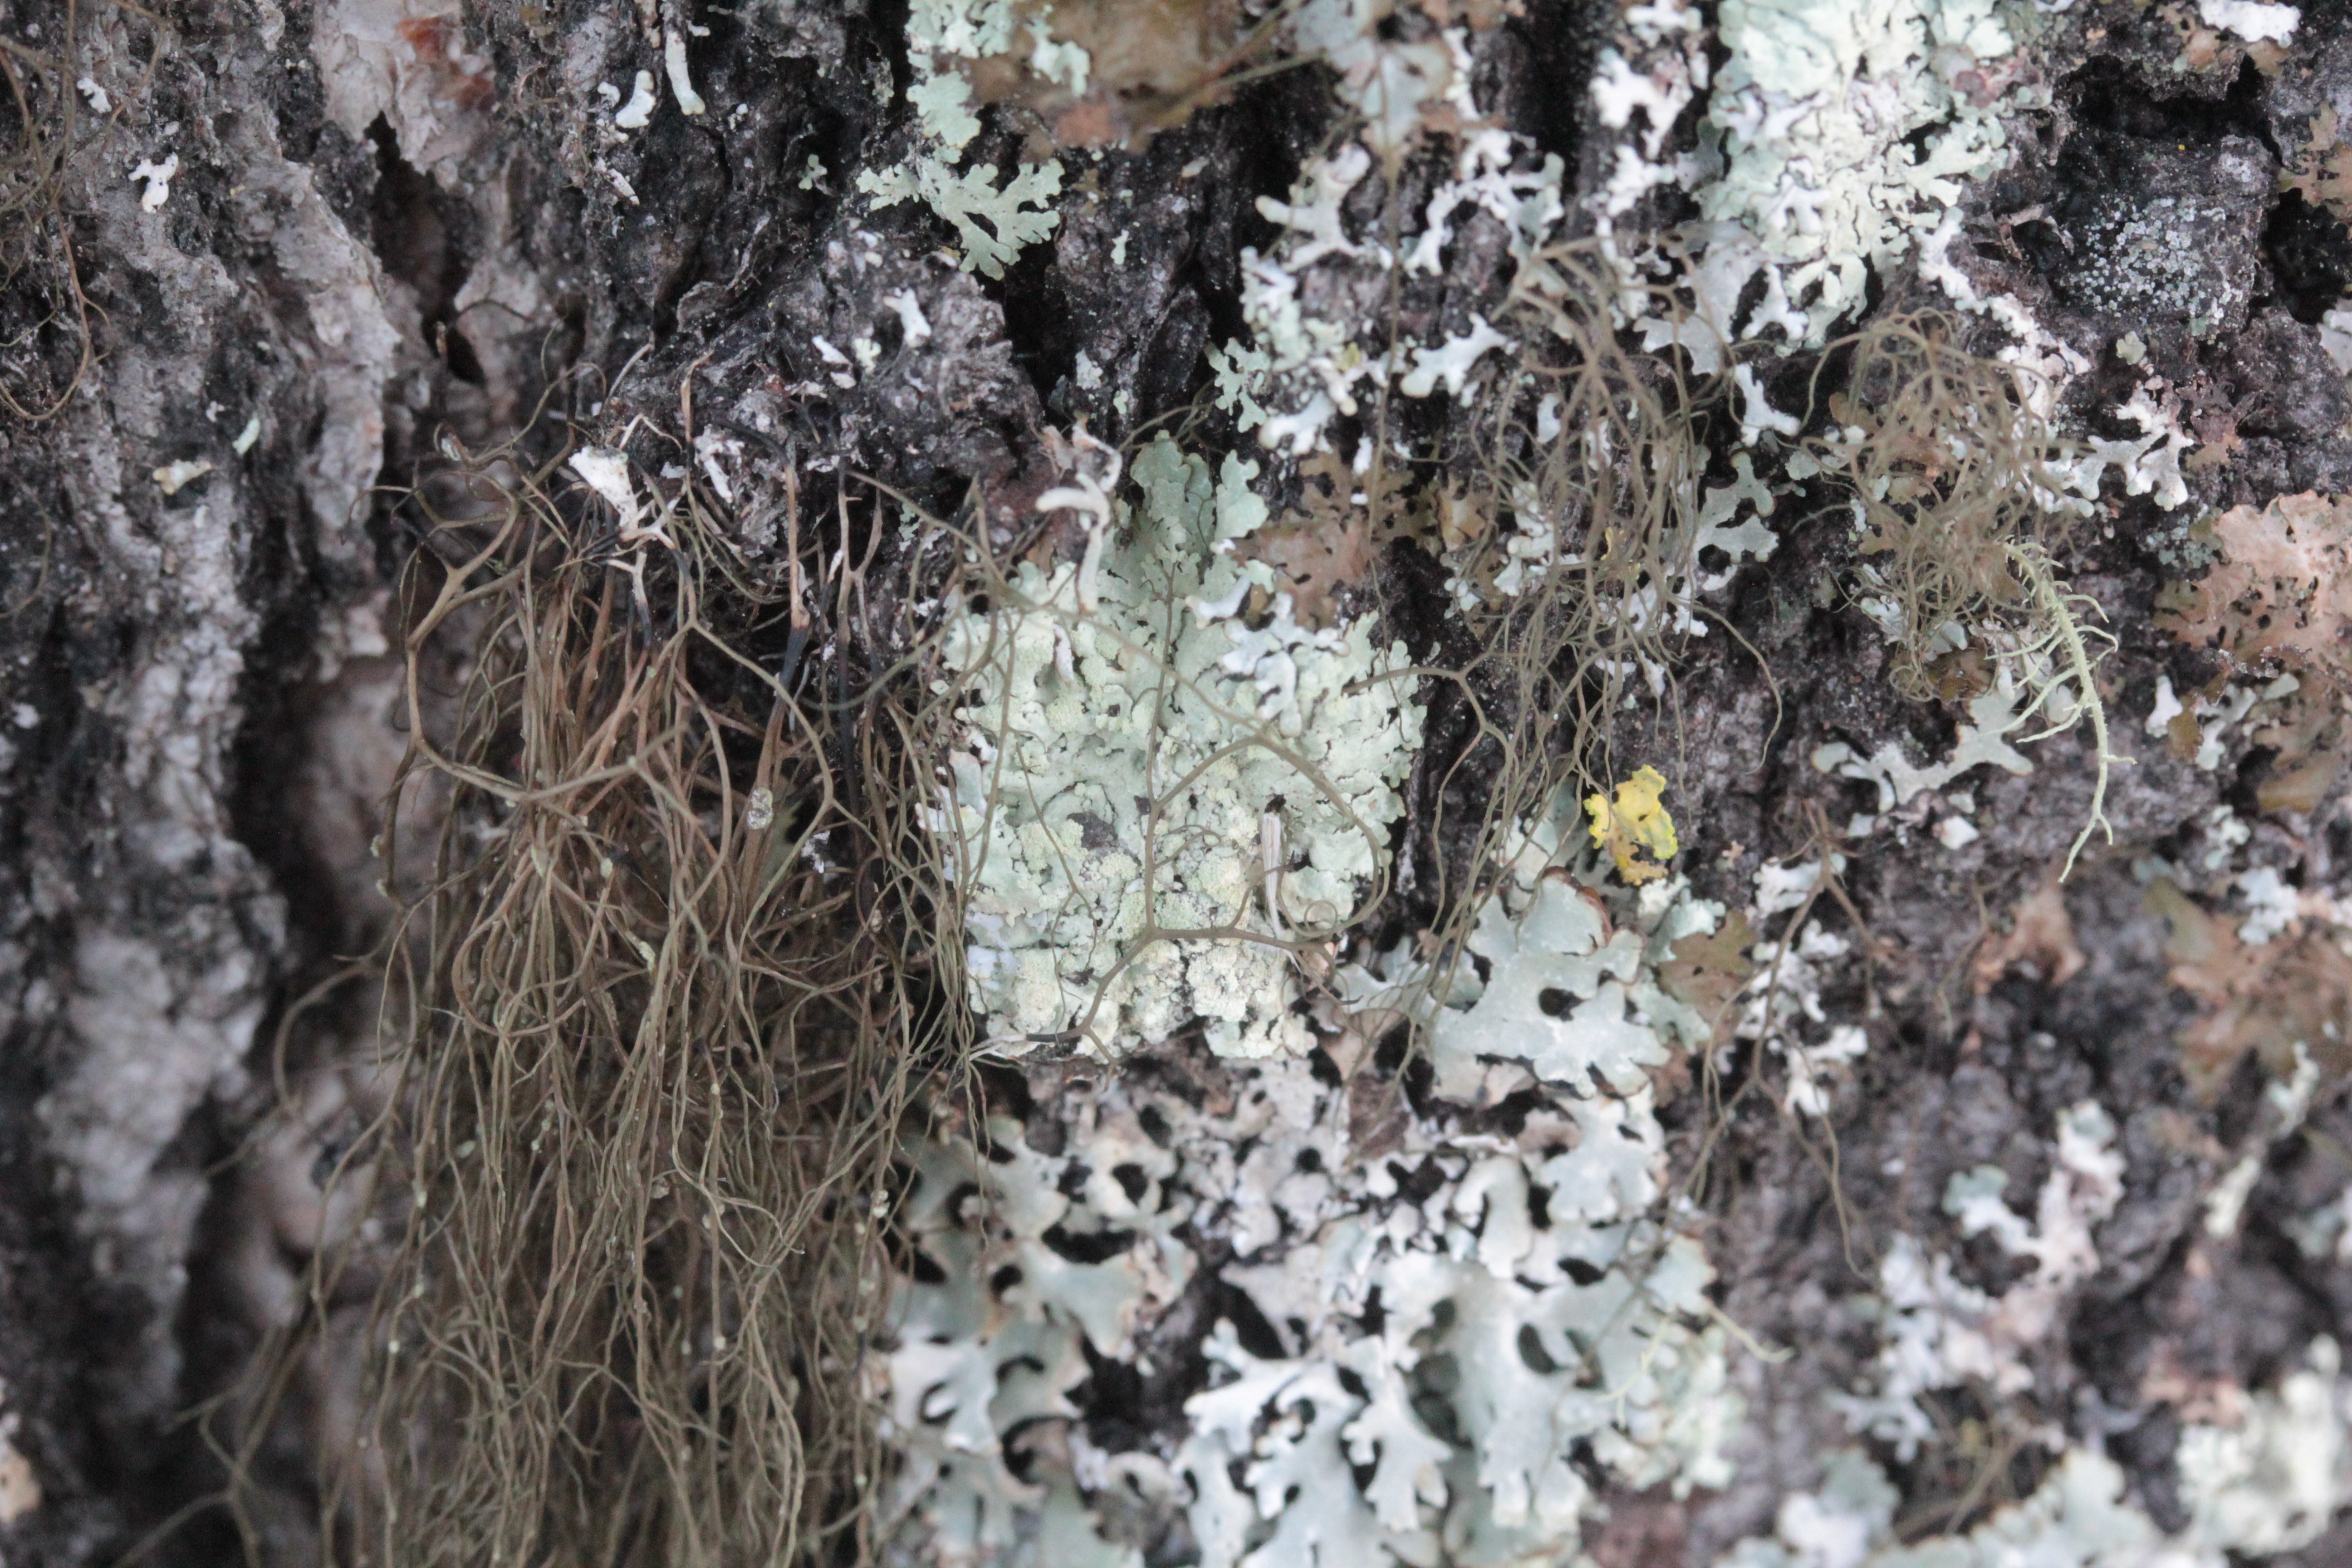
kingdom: Fungi
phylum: Ascomycota
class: Lecanoromycetes
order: Lecanorales
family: Parmeliaceae
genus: Parmeliopsis
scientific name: Parmeliopsis ambigua
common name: Green starburst lichen
